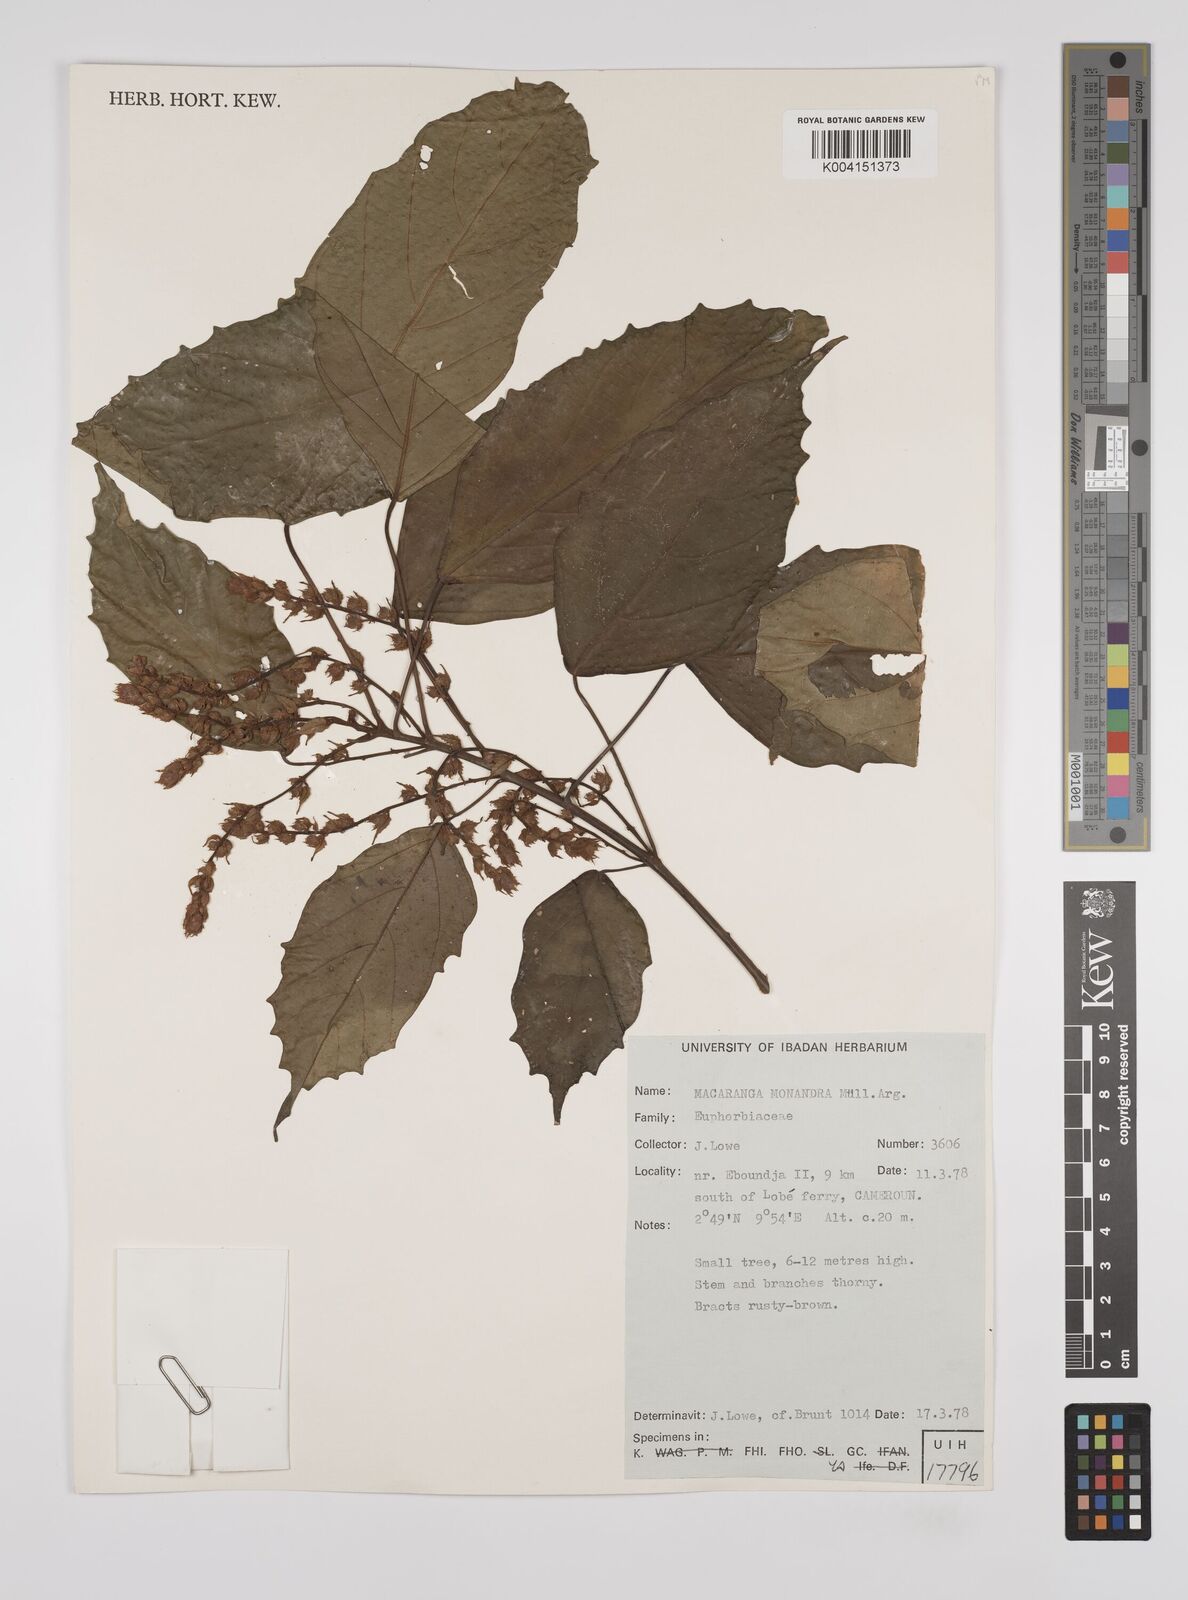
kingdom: Plantae
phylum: Tracheophyta
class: Magnoliopsida
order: Malpighiales
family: Euphorbiaceae
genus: Macaranga
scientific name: Macaranga monandra
